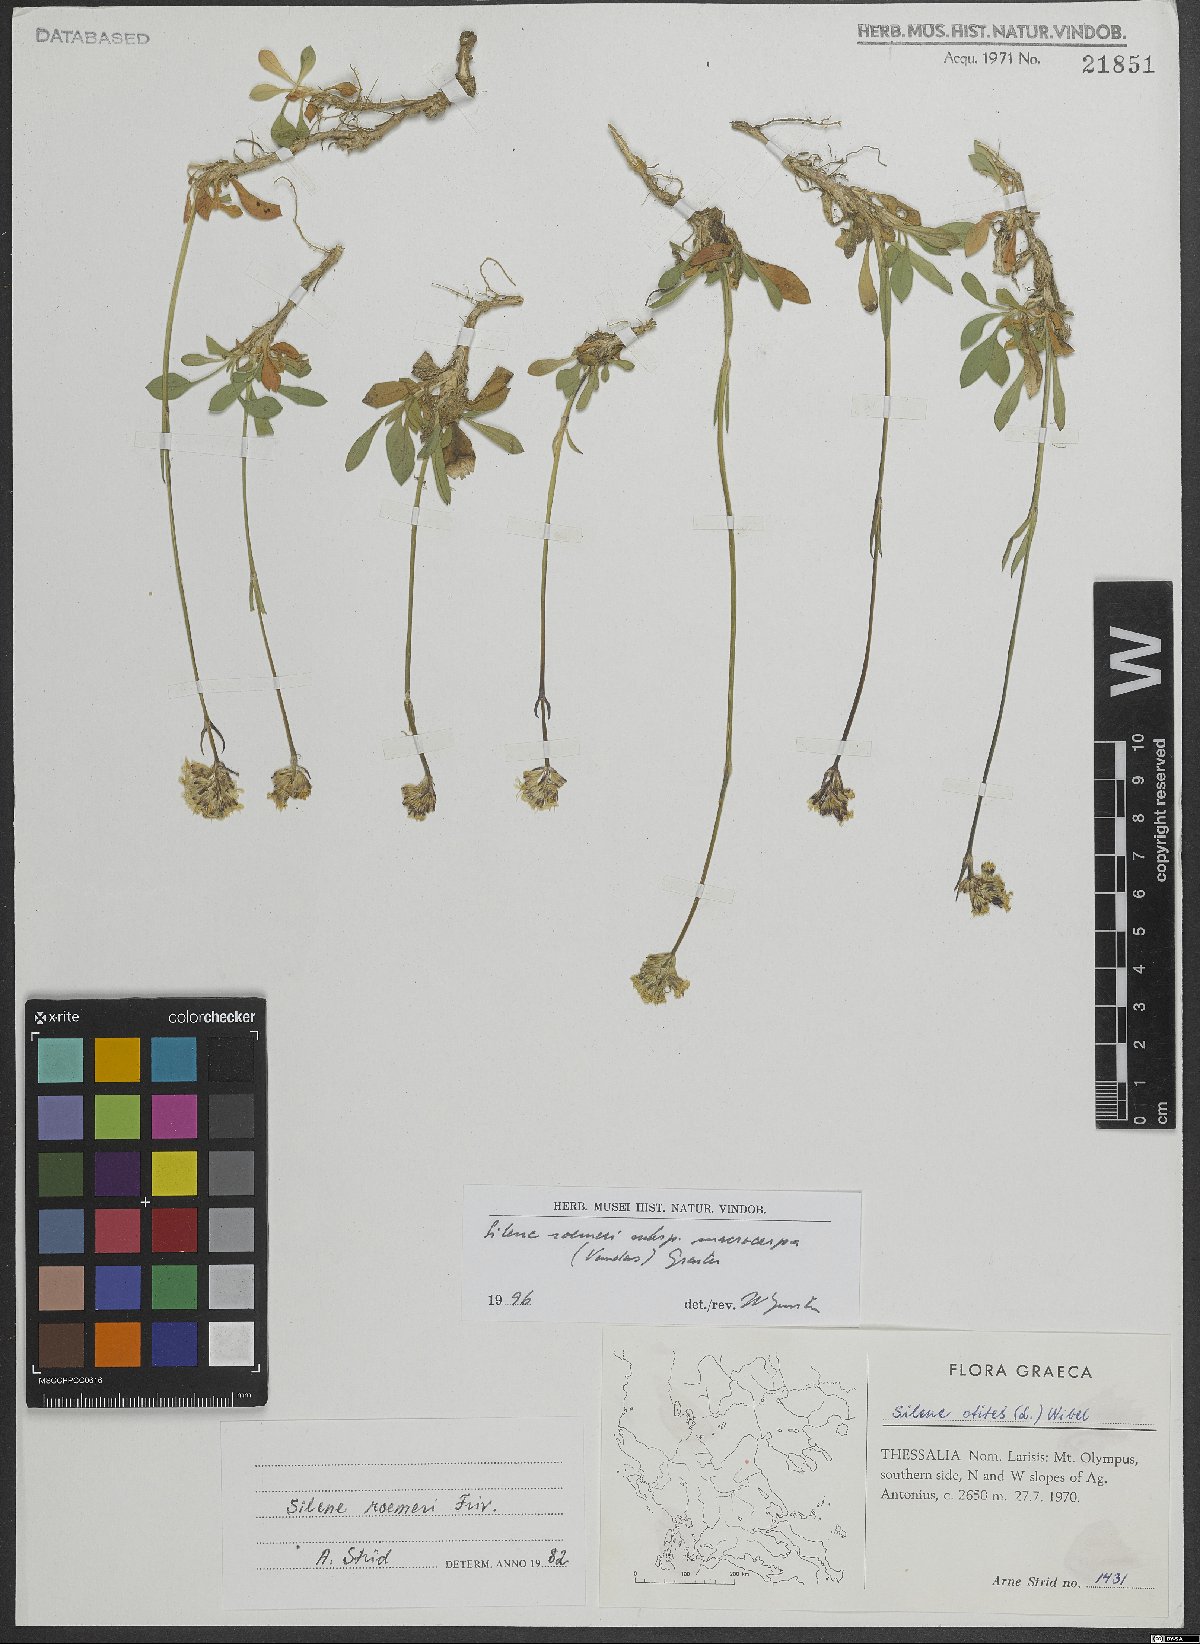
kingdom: Plantae
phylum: Tracheophyta
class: Magnoliopsida
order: Caryophyllales
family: Caryophyllaceae
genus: Silene
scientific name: Silene roemeri
